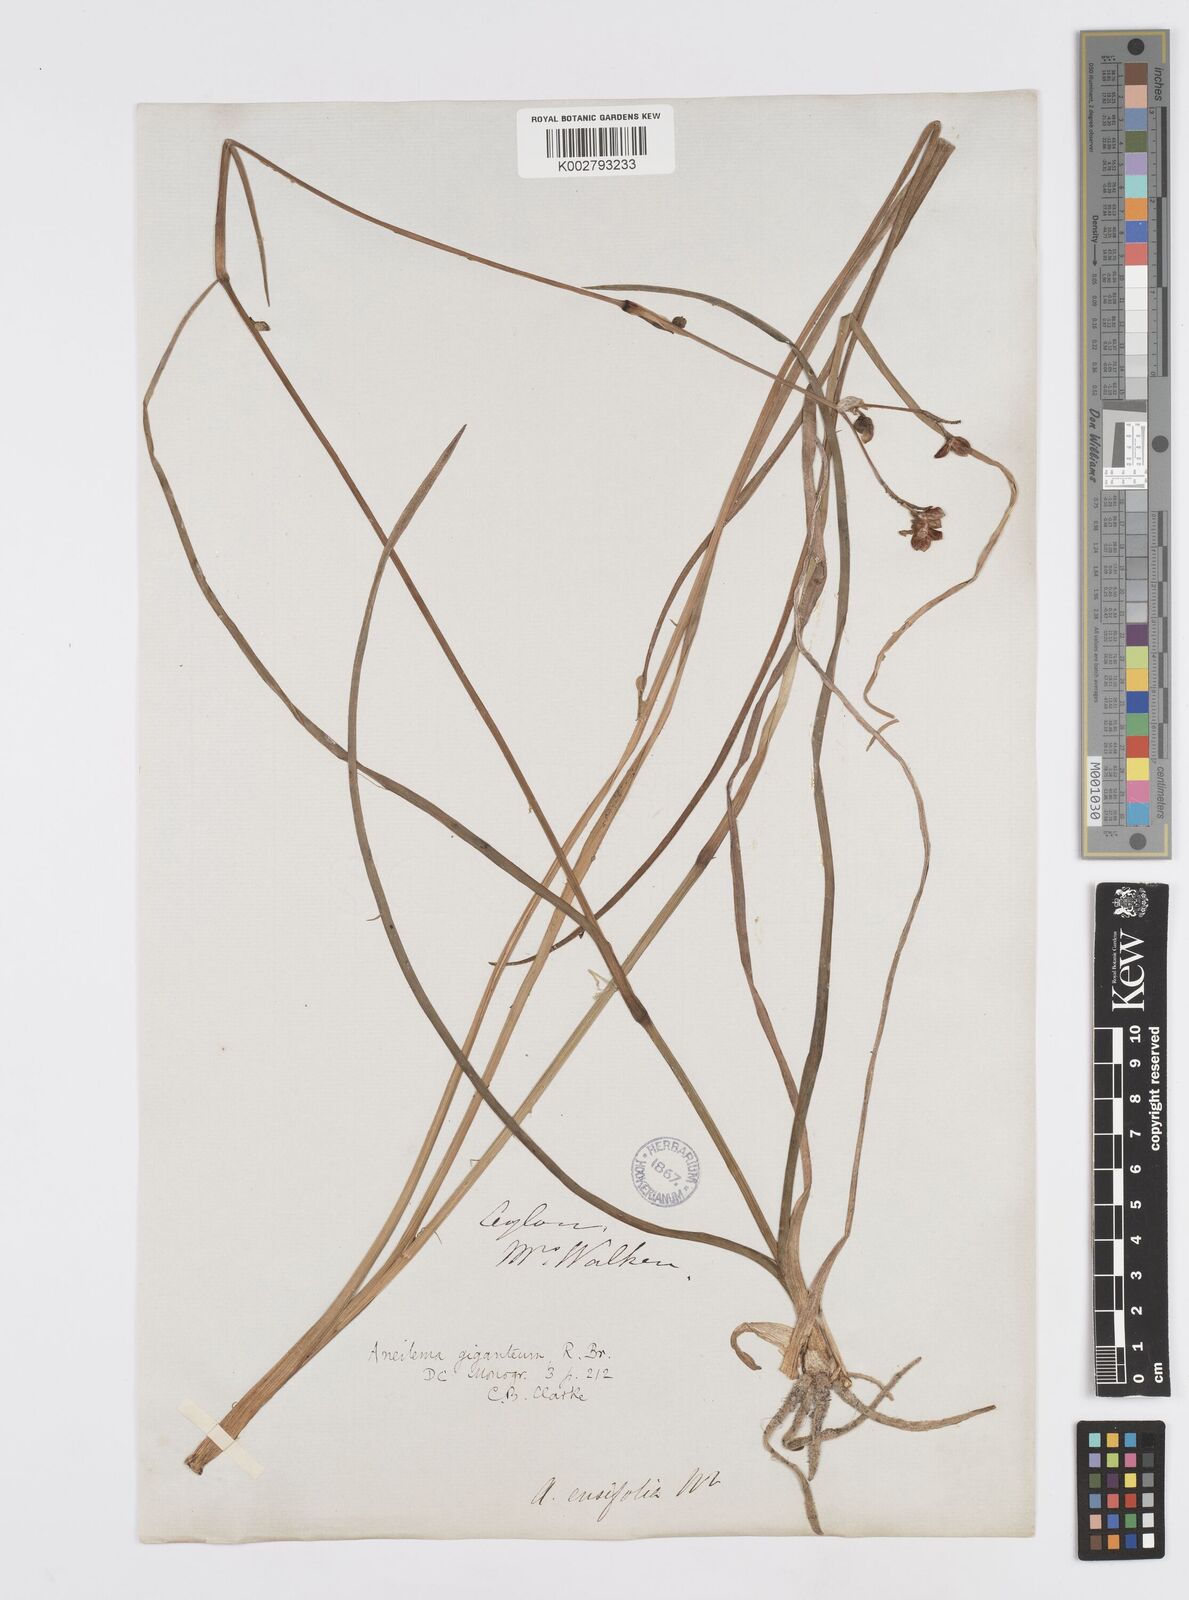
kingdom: Plantae
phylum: Tracheophyta
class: Liliopsida
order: Commelinales
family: Commelinaceae
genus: Murdannia
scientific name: Murdannia gigantea
